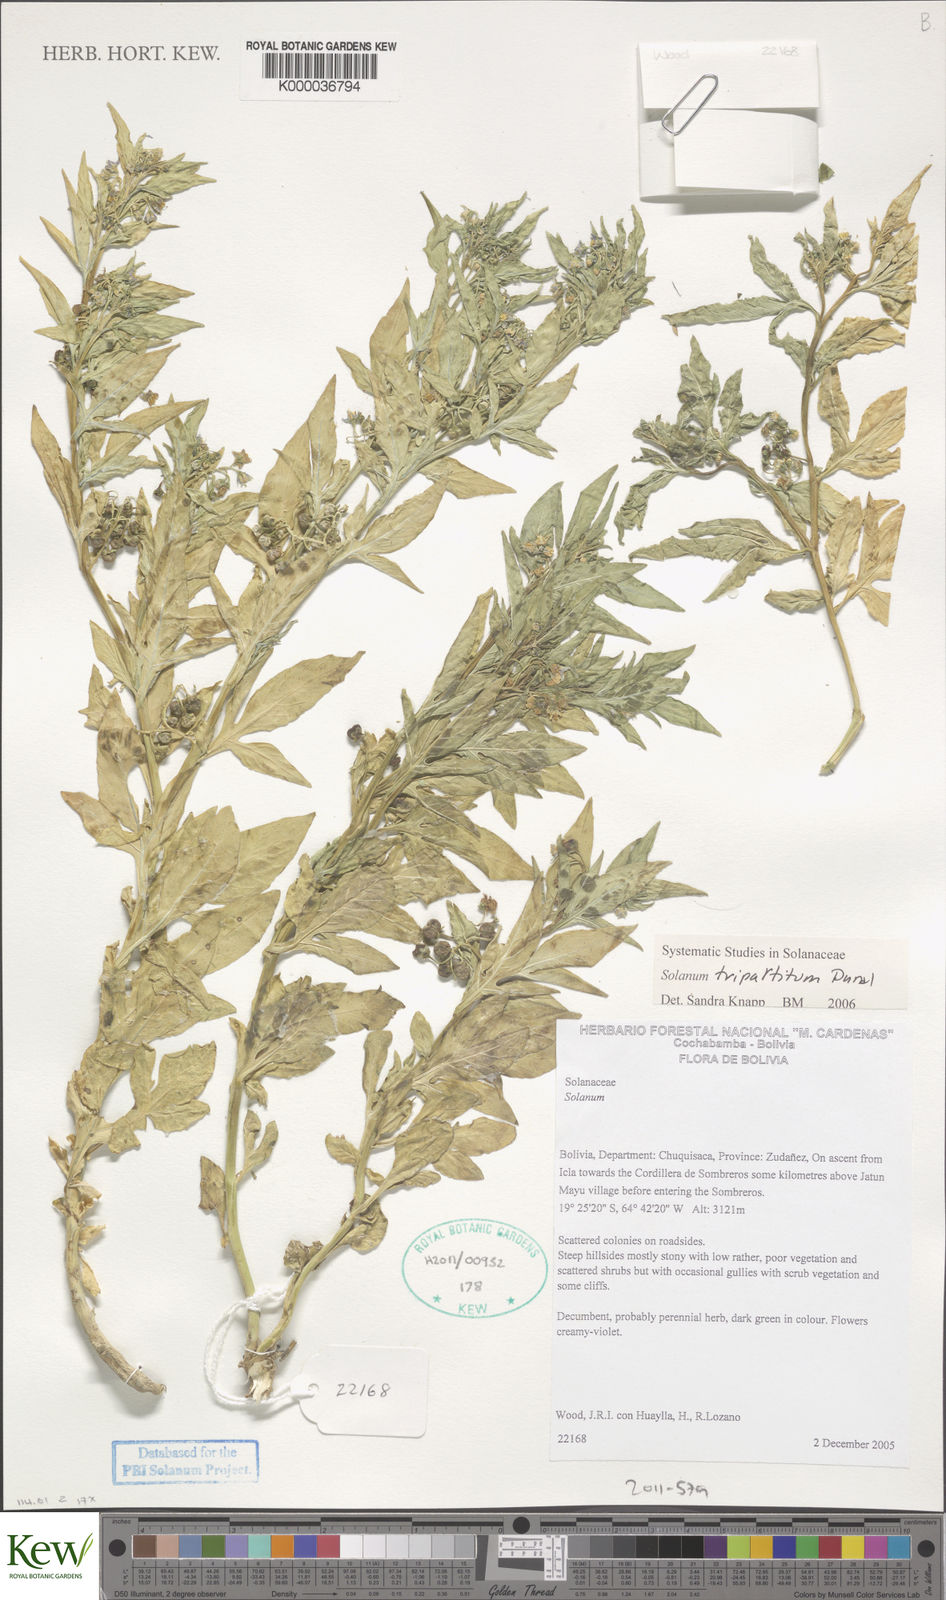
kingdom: Plantae
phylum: Tracheophyta
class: Magnoliopsida
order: Solanales
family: Solanaceae
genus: Solanum
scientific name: Solanum tripartitum
